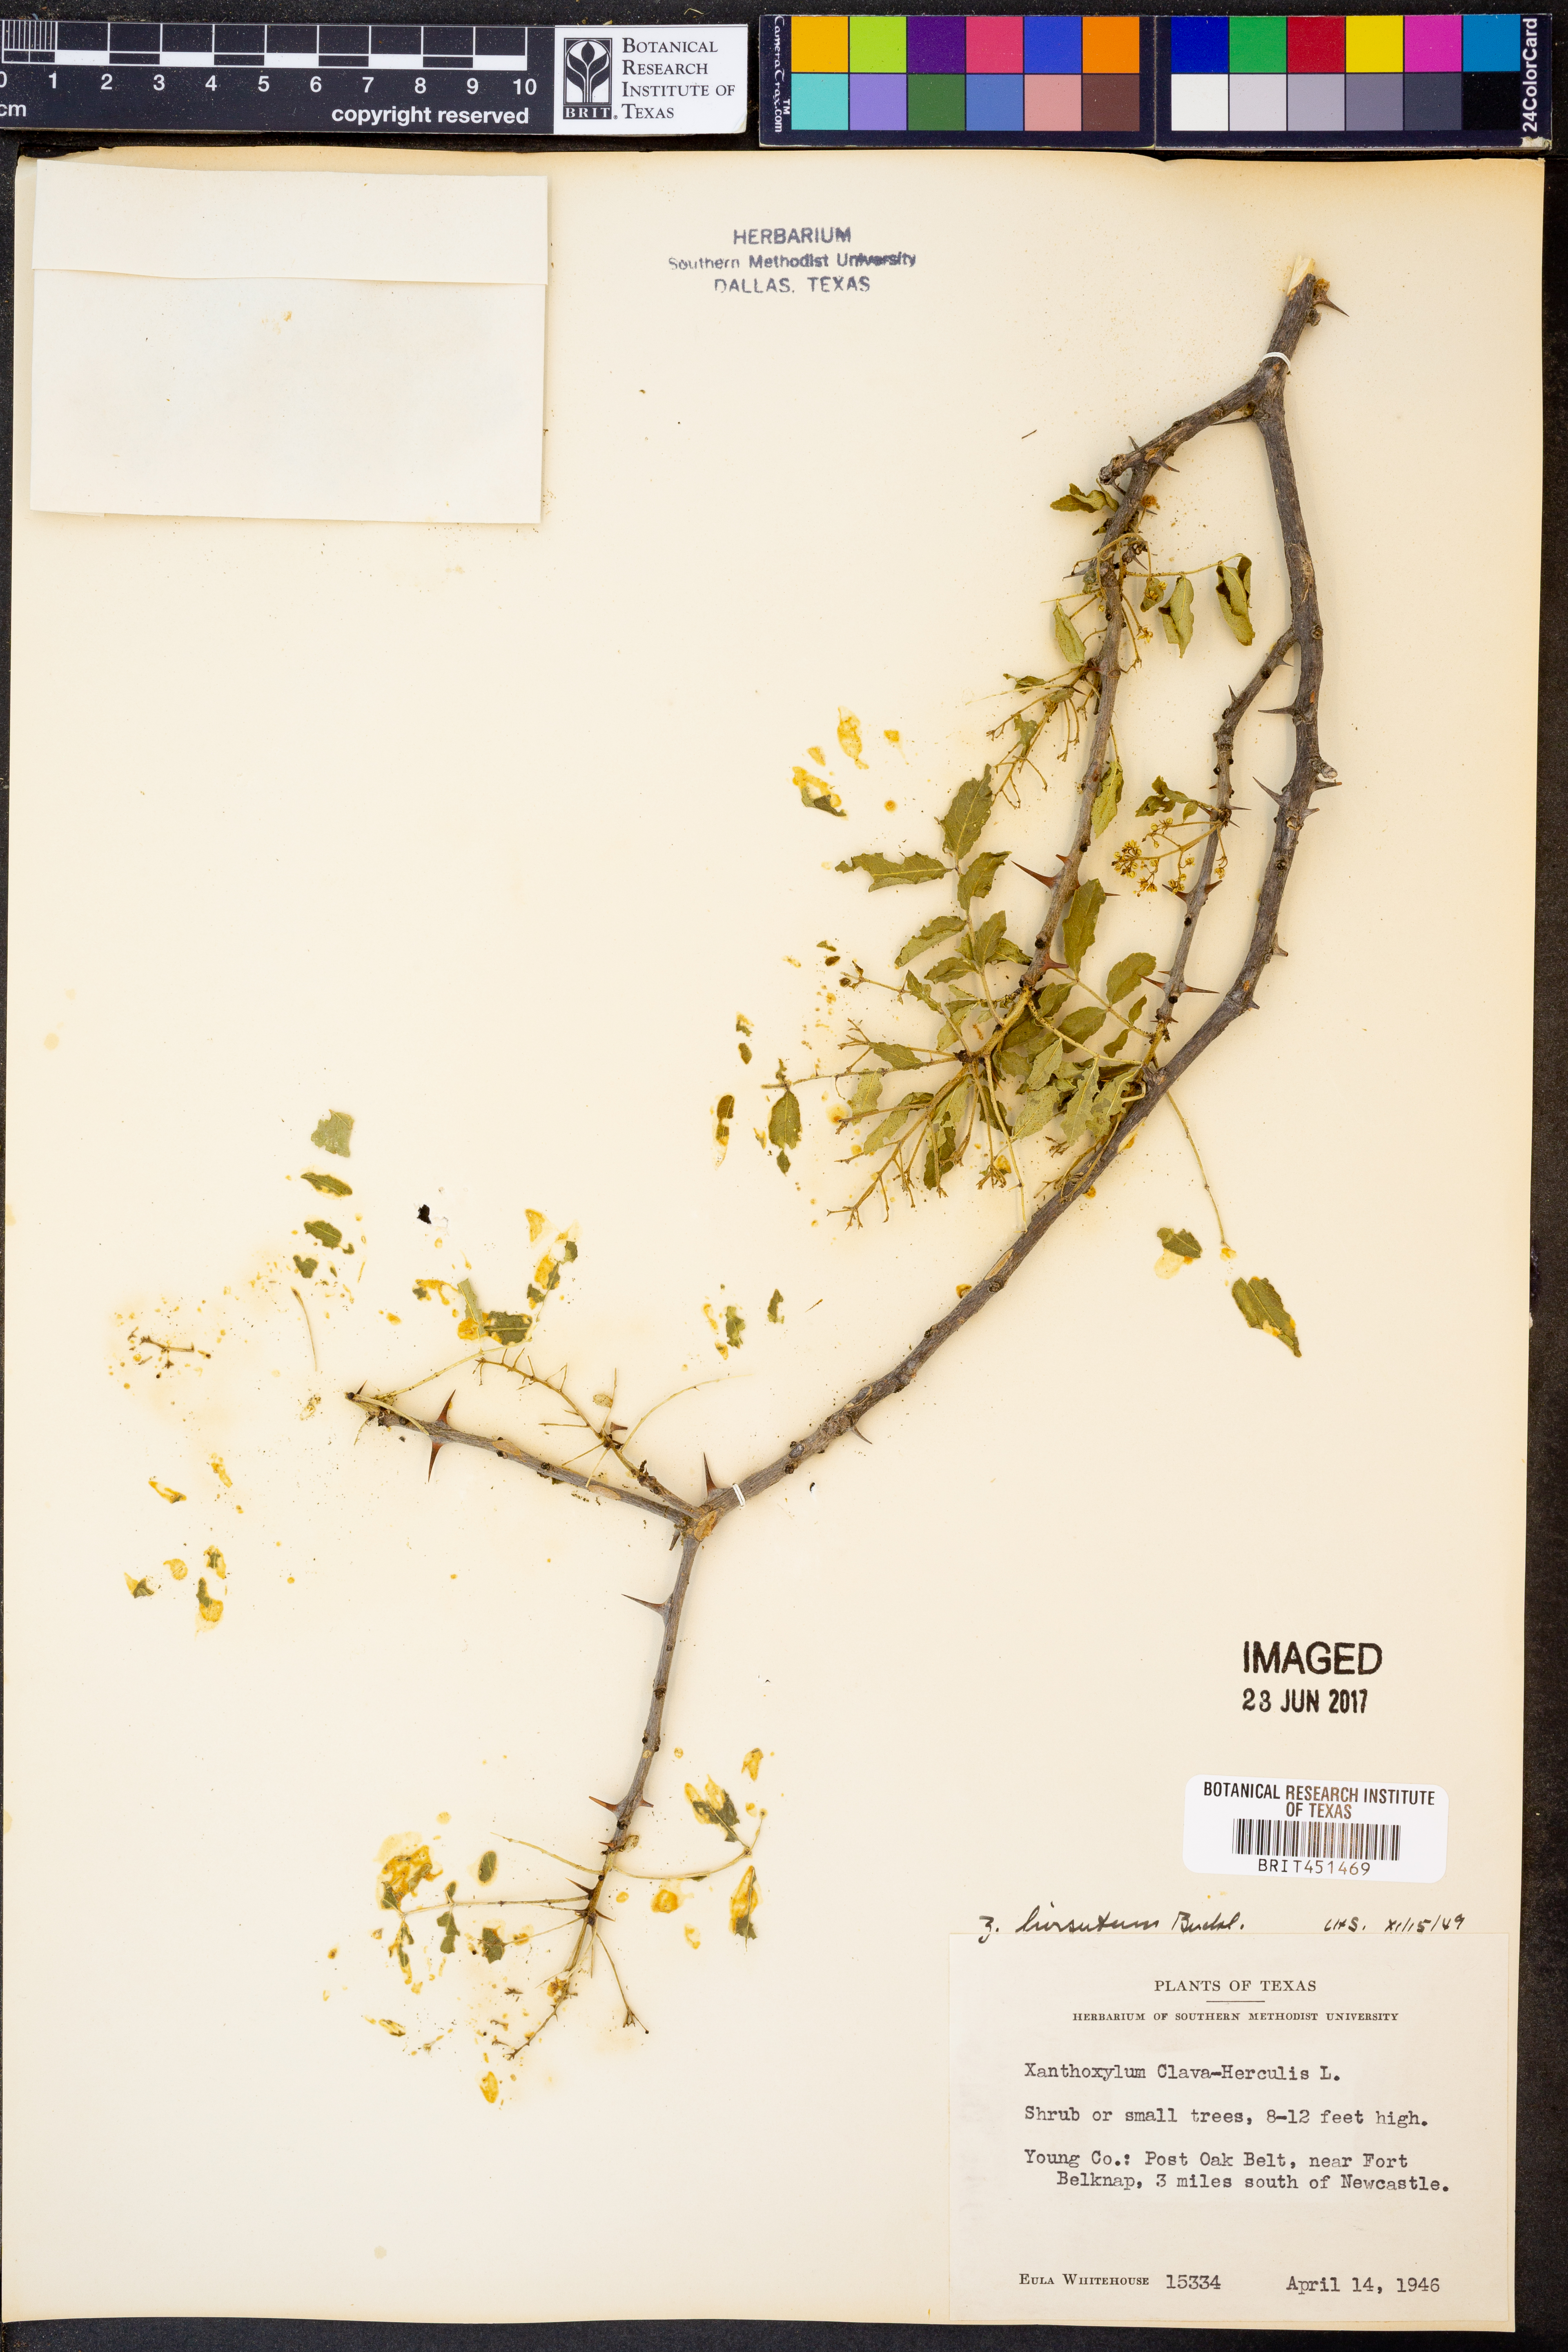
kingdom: Plantae
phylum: Tracheophyta
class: Magnoliopsida
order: Sapindales
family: Rutaceae
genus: Zanthoxylum
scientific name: Zanthoxylum clava-herculis
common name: Hercules'-club
